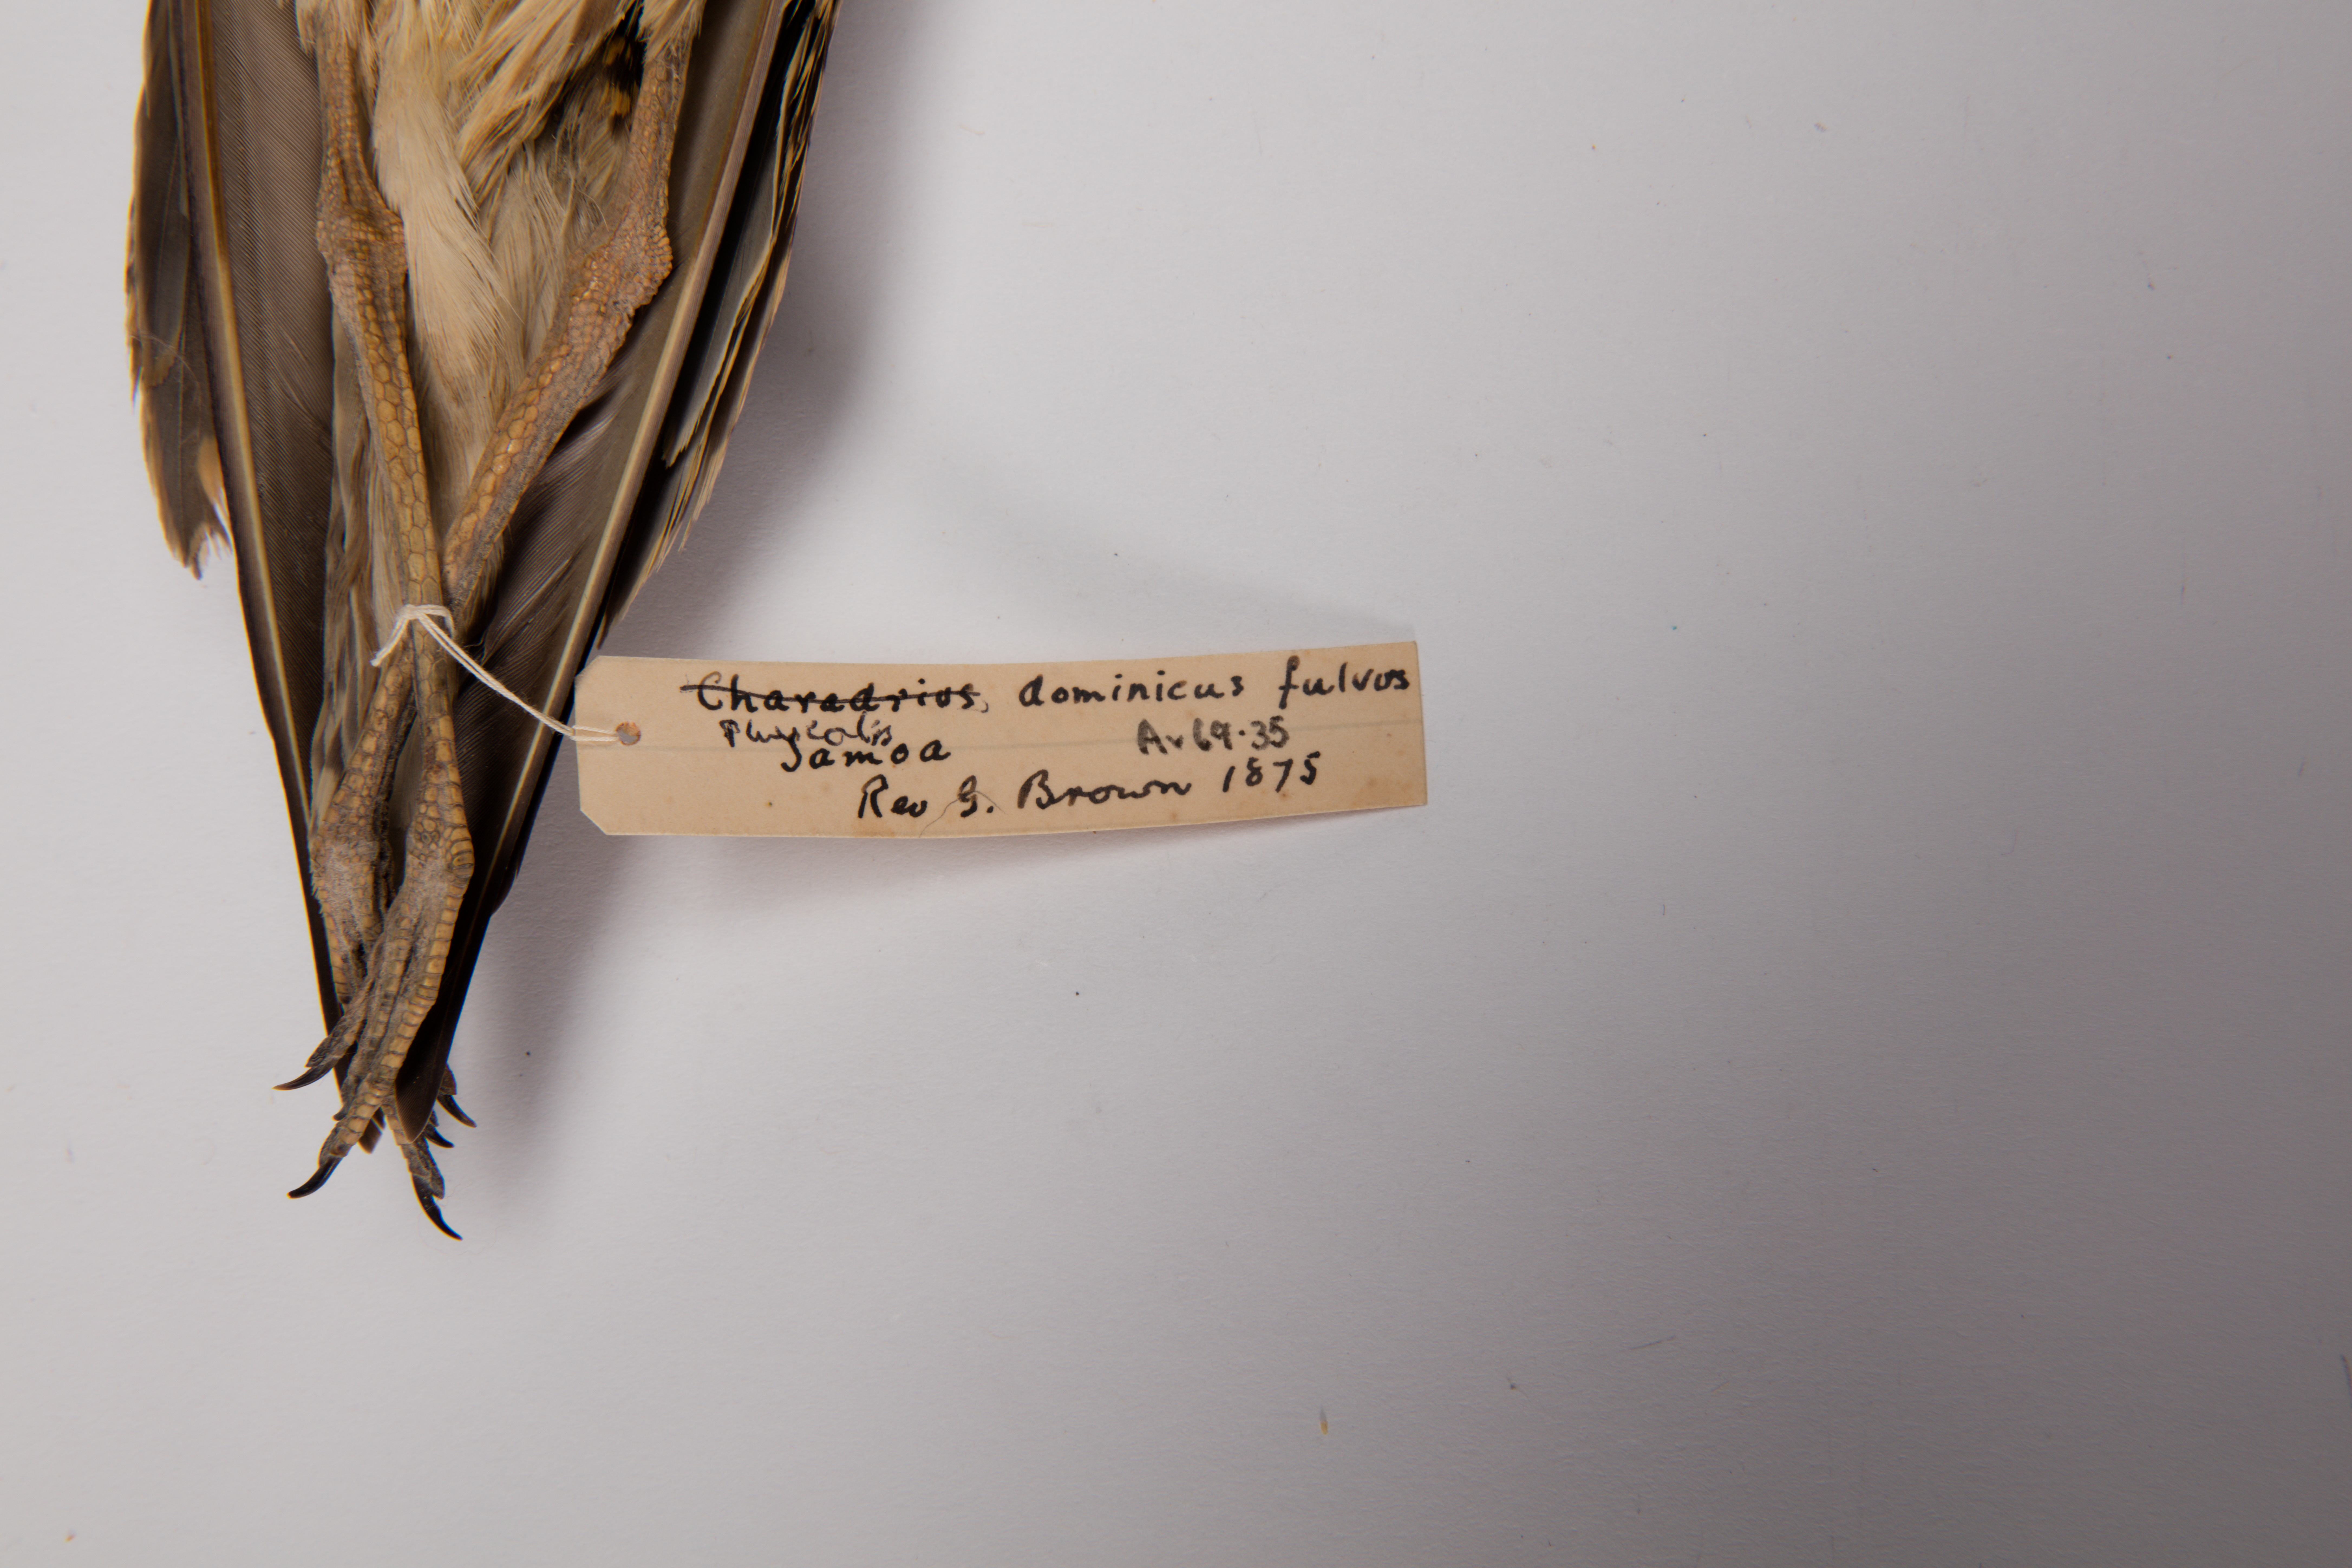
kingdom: Animalia
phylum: Chordata
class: Aves
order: Charadriiformes
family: Charadriidae
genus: Pluvialis
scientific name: Pluvialis fulva
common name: Pacific golden plover
